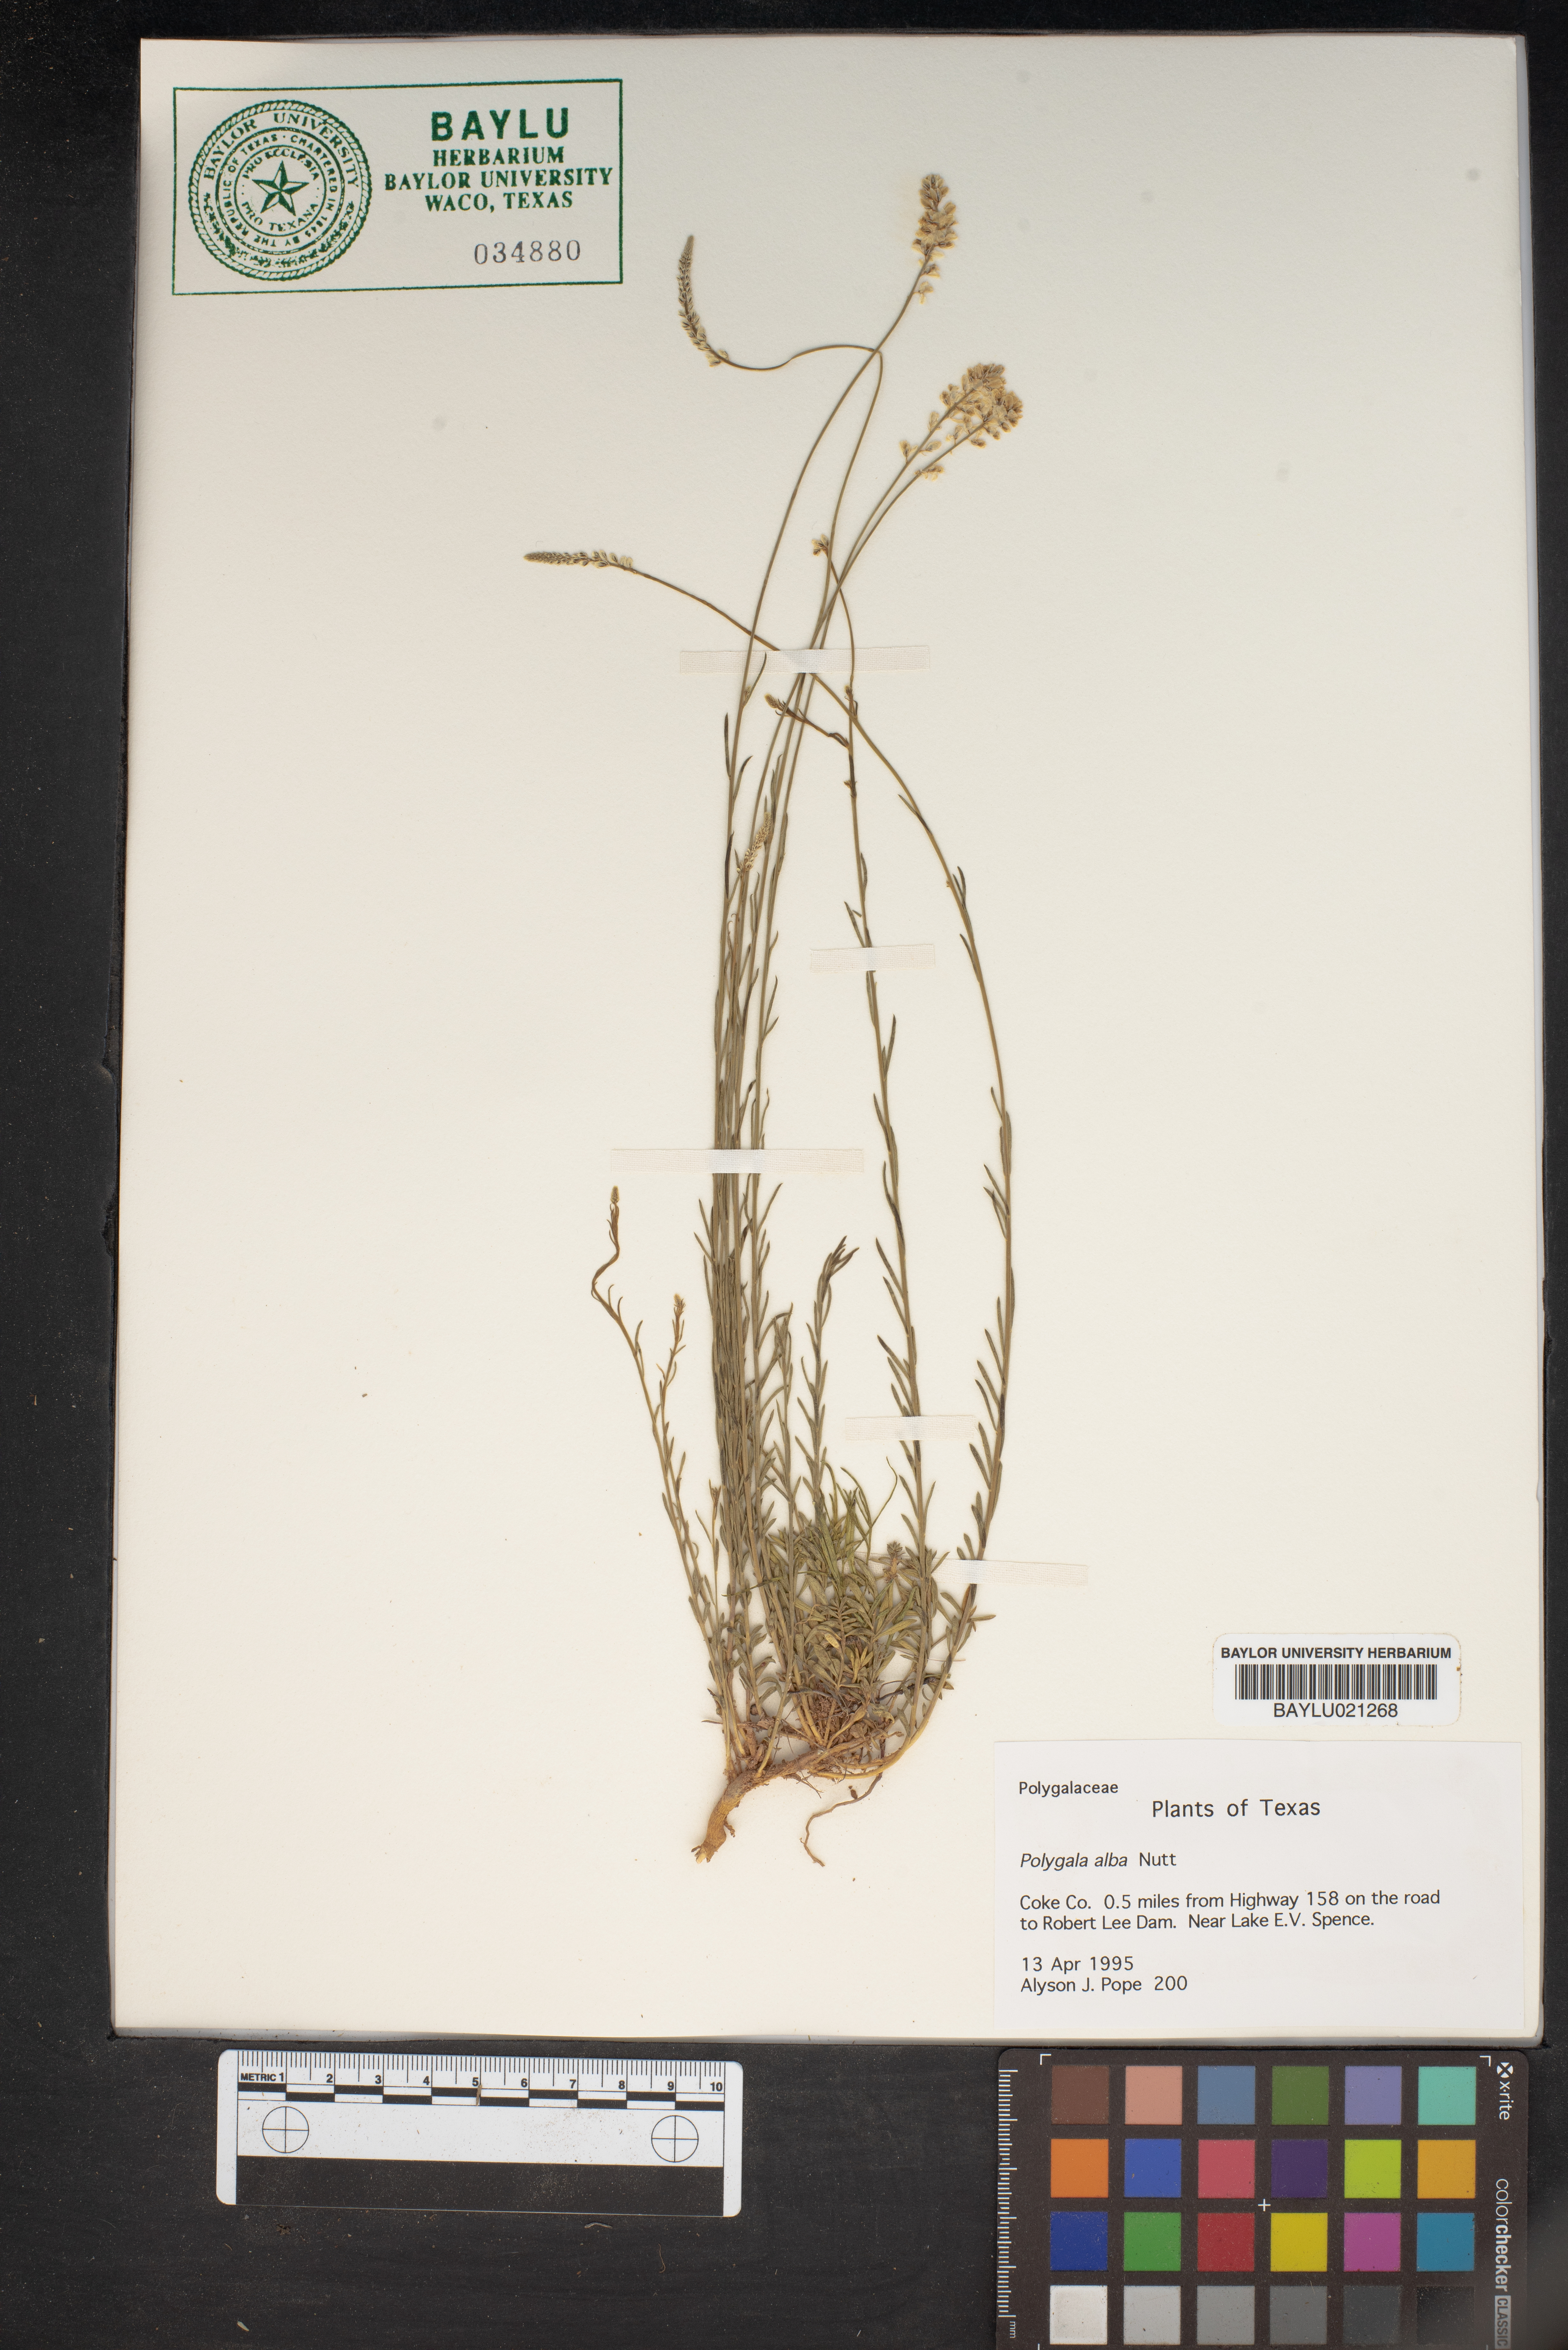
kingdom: Plantae
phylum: Tracheophyta
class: Magnoliopsida
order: Fabales
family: Polygalaceae
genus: Polygala
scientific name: Polygala alba
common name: White milkwort
